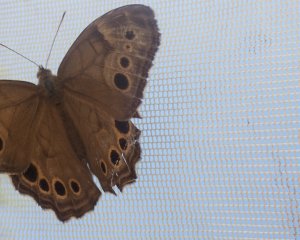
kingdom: Animalia
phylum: Arthropoda
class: Insecta
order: Lepidoptera
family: Nymphalidae
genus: Lethe
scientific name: Lethe anthedon
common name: Northern Pearly-Eye
